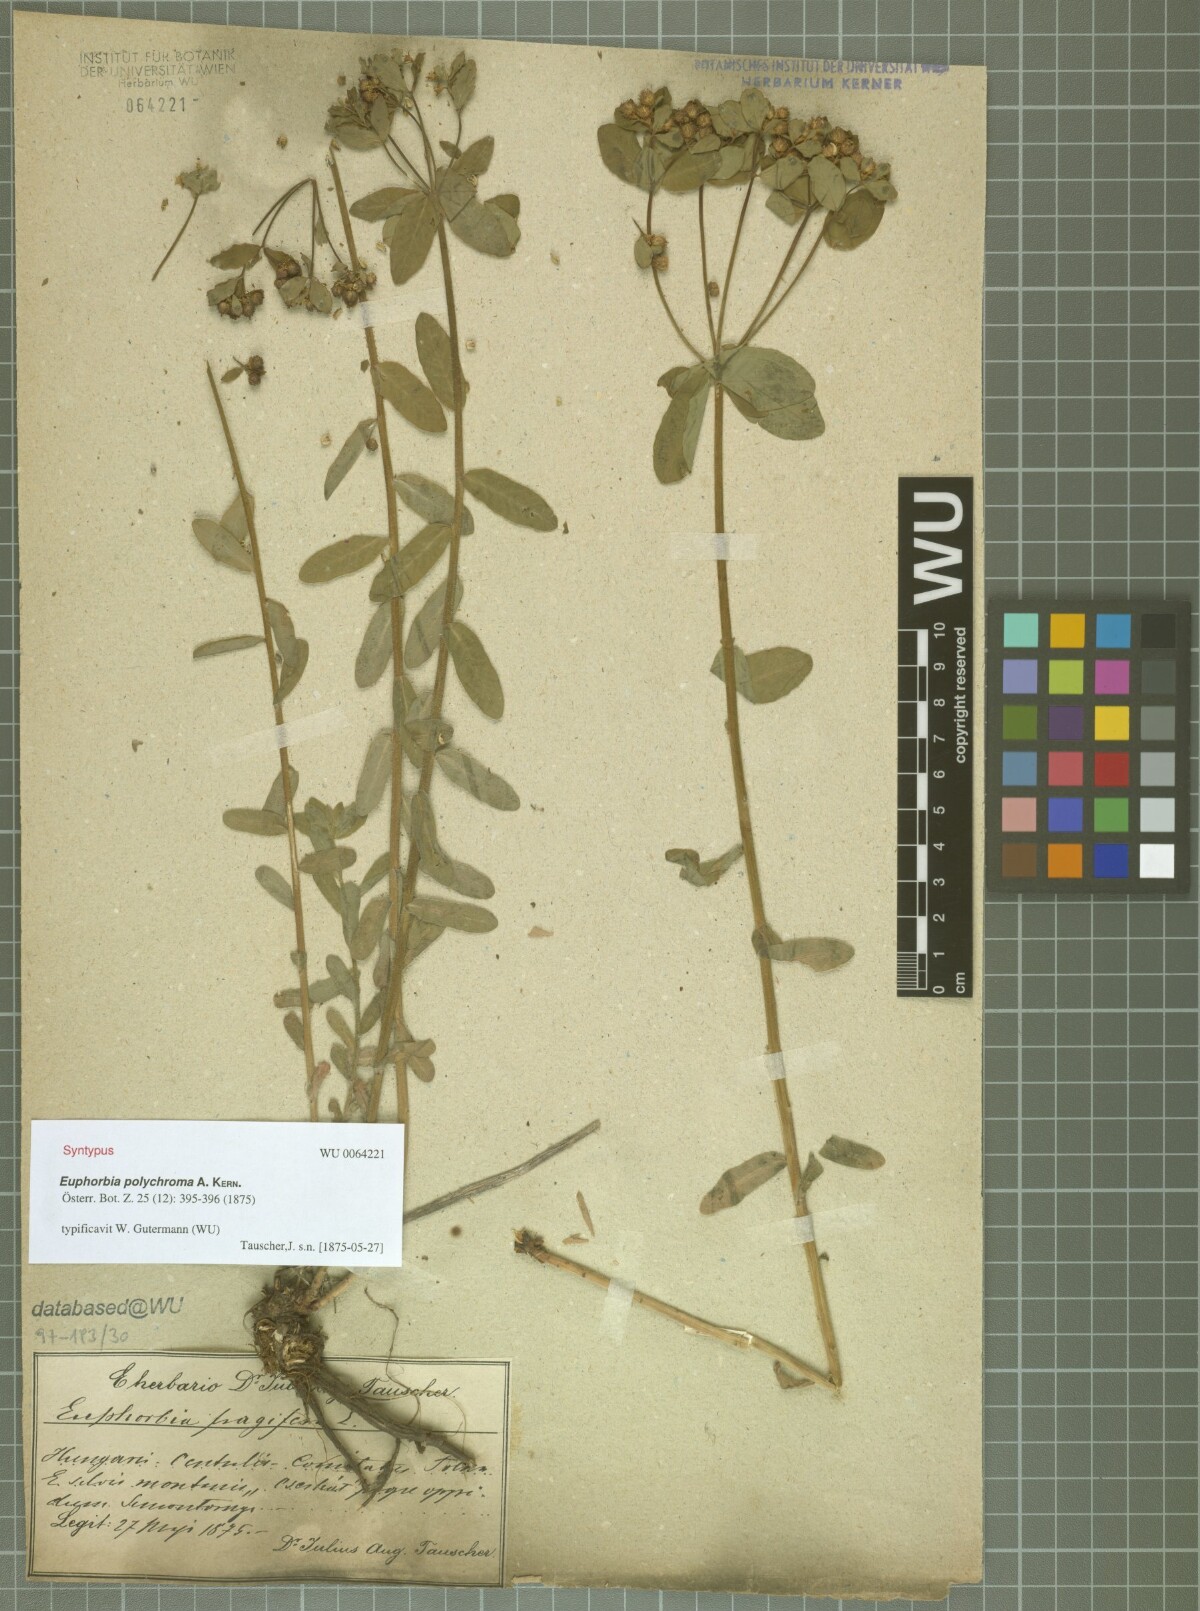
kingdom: Plantae
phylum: Tracheophyta
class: Magnoliopsida
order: Malpighiales
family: Euphorbiaceae
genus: Euphorbia
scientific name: Euphorbia epithymoides
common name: Cushion spurge
